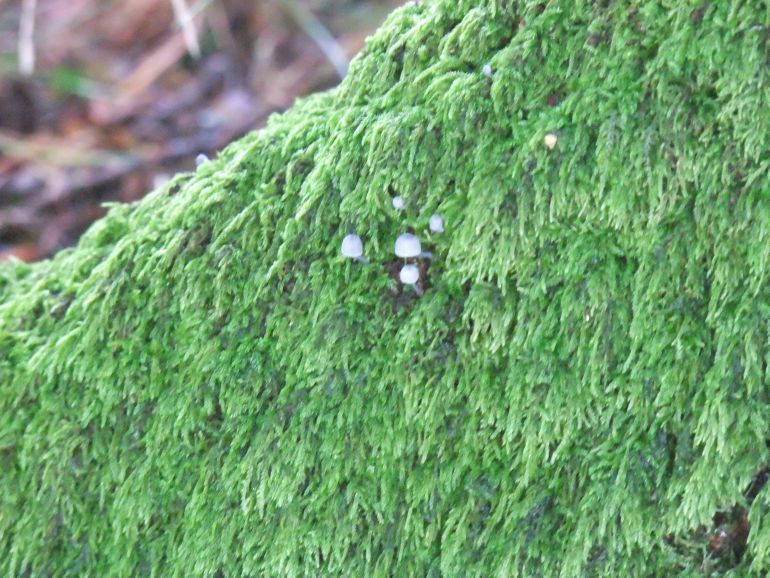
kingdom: Fungi
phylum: Basidiomycota
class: Agaricomycetes
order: Agaricales
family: Mycenaceae
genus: Mycena
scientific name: Mycena pseudocorticola
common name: gråblå bark-huesvamp
